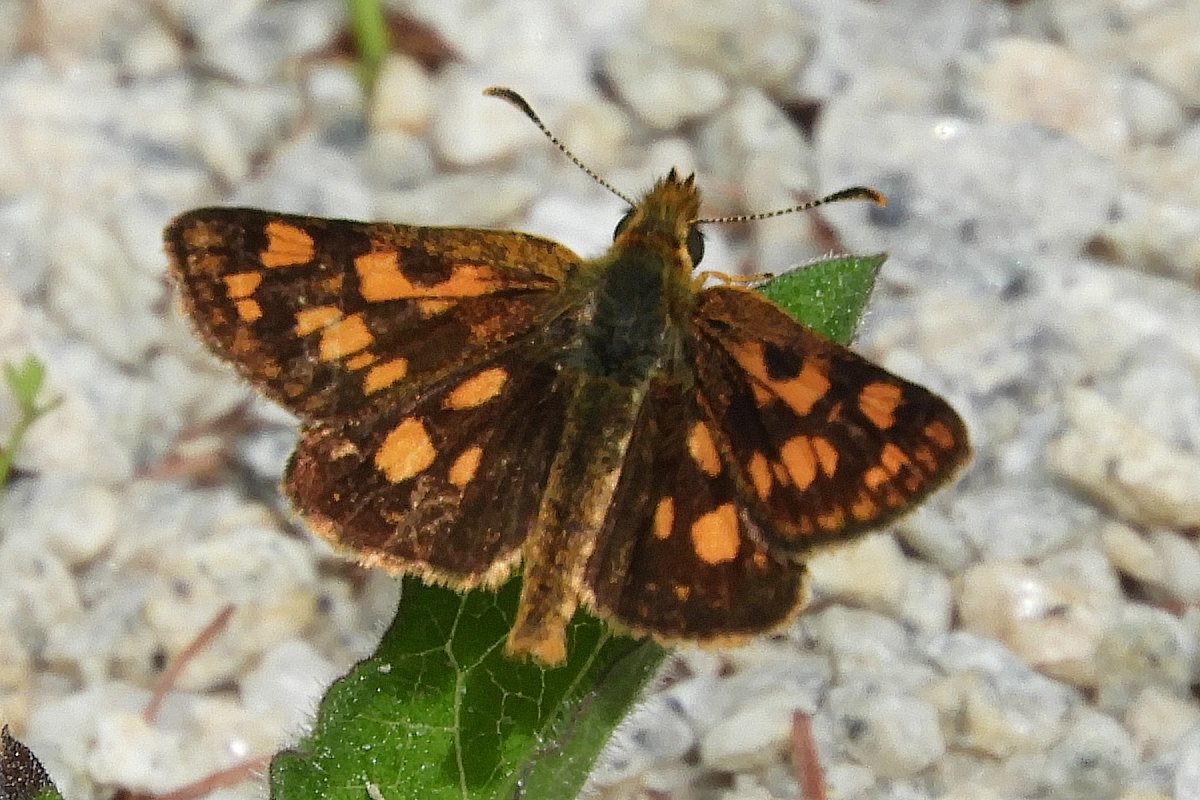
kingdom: Animalia
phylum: Arthropoda
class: Insecta
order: Lepidoptera
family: Hesperiidae
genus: Carterocephalus
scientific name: Carterocephalus palaemon
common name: Chequered Skipper
